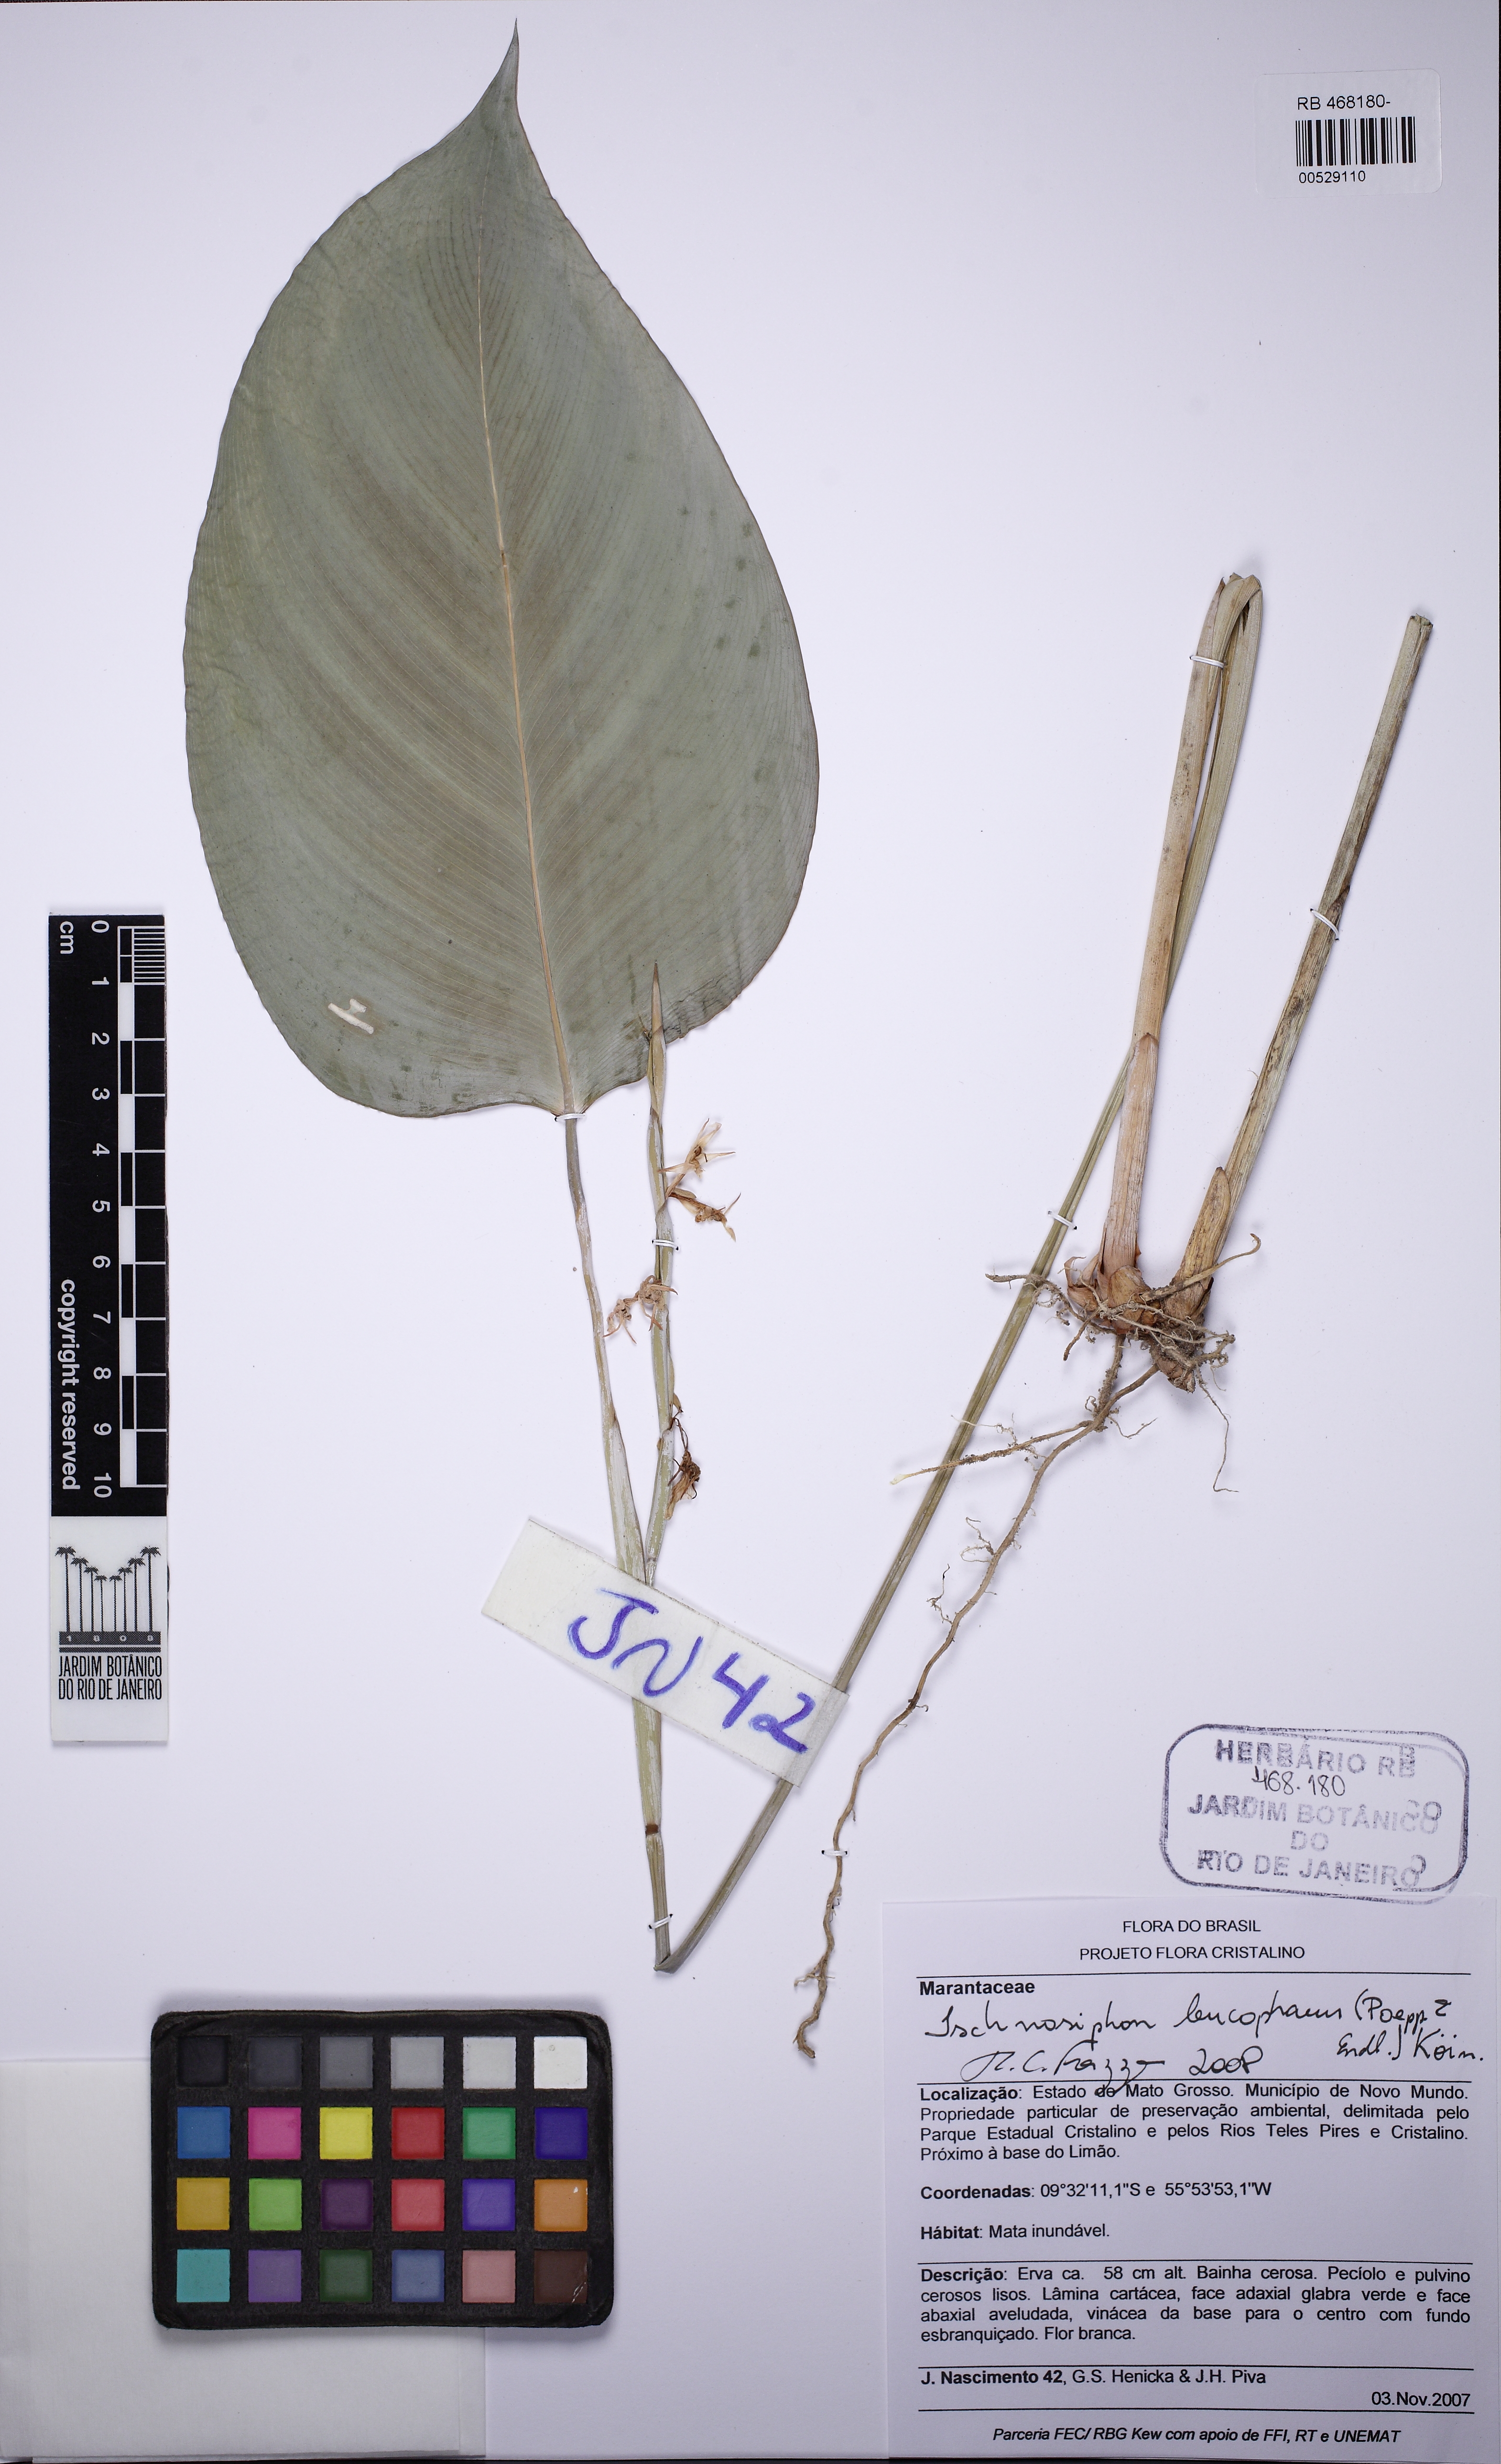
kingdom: Plantae
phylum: Tracheophyta
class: Liliopsida
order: Zingiberales
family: Marantaceae
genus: Ischnosiphon
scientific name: Ischnosiphon leucophaeus
